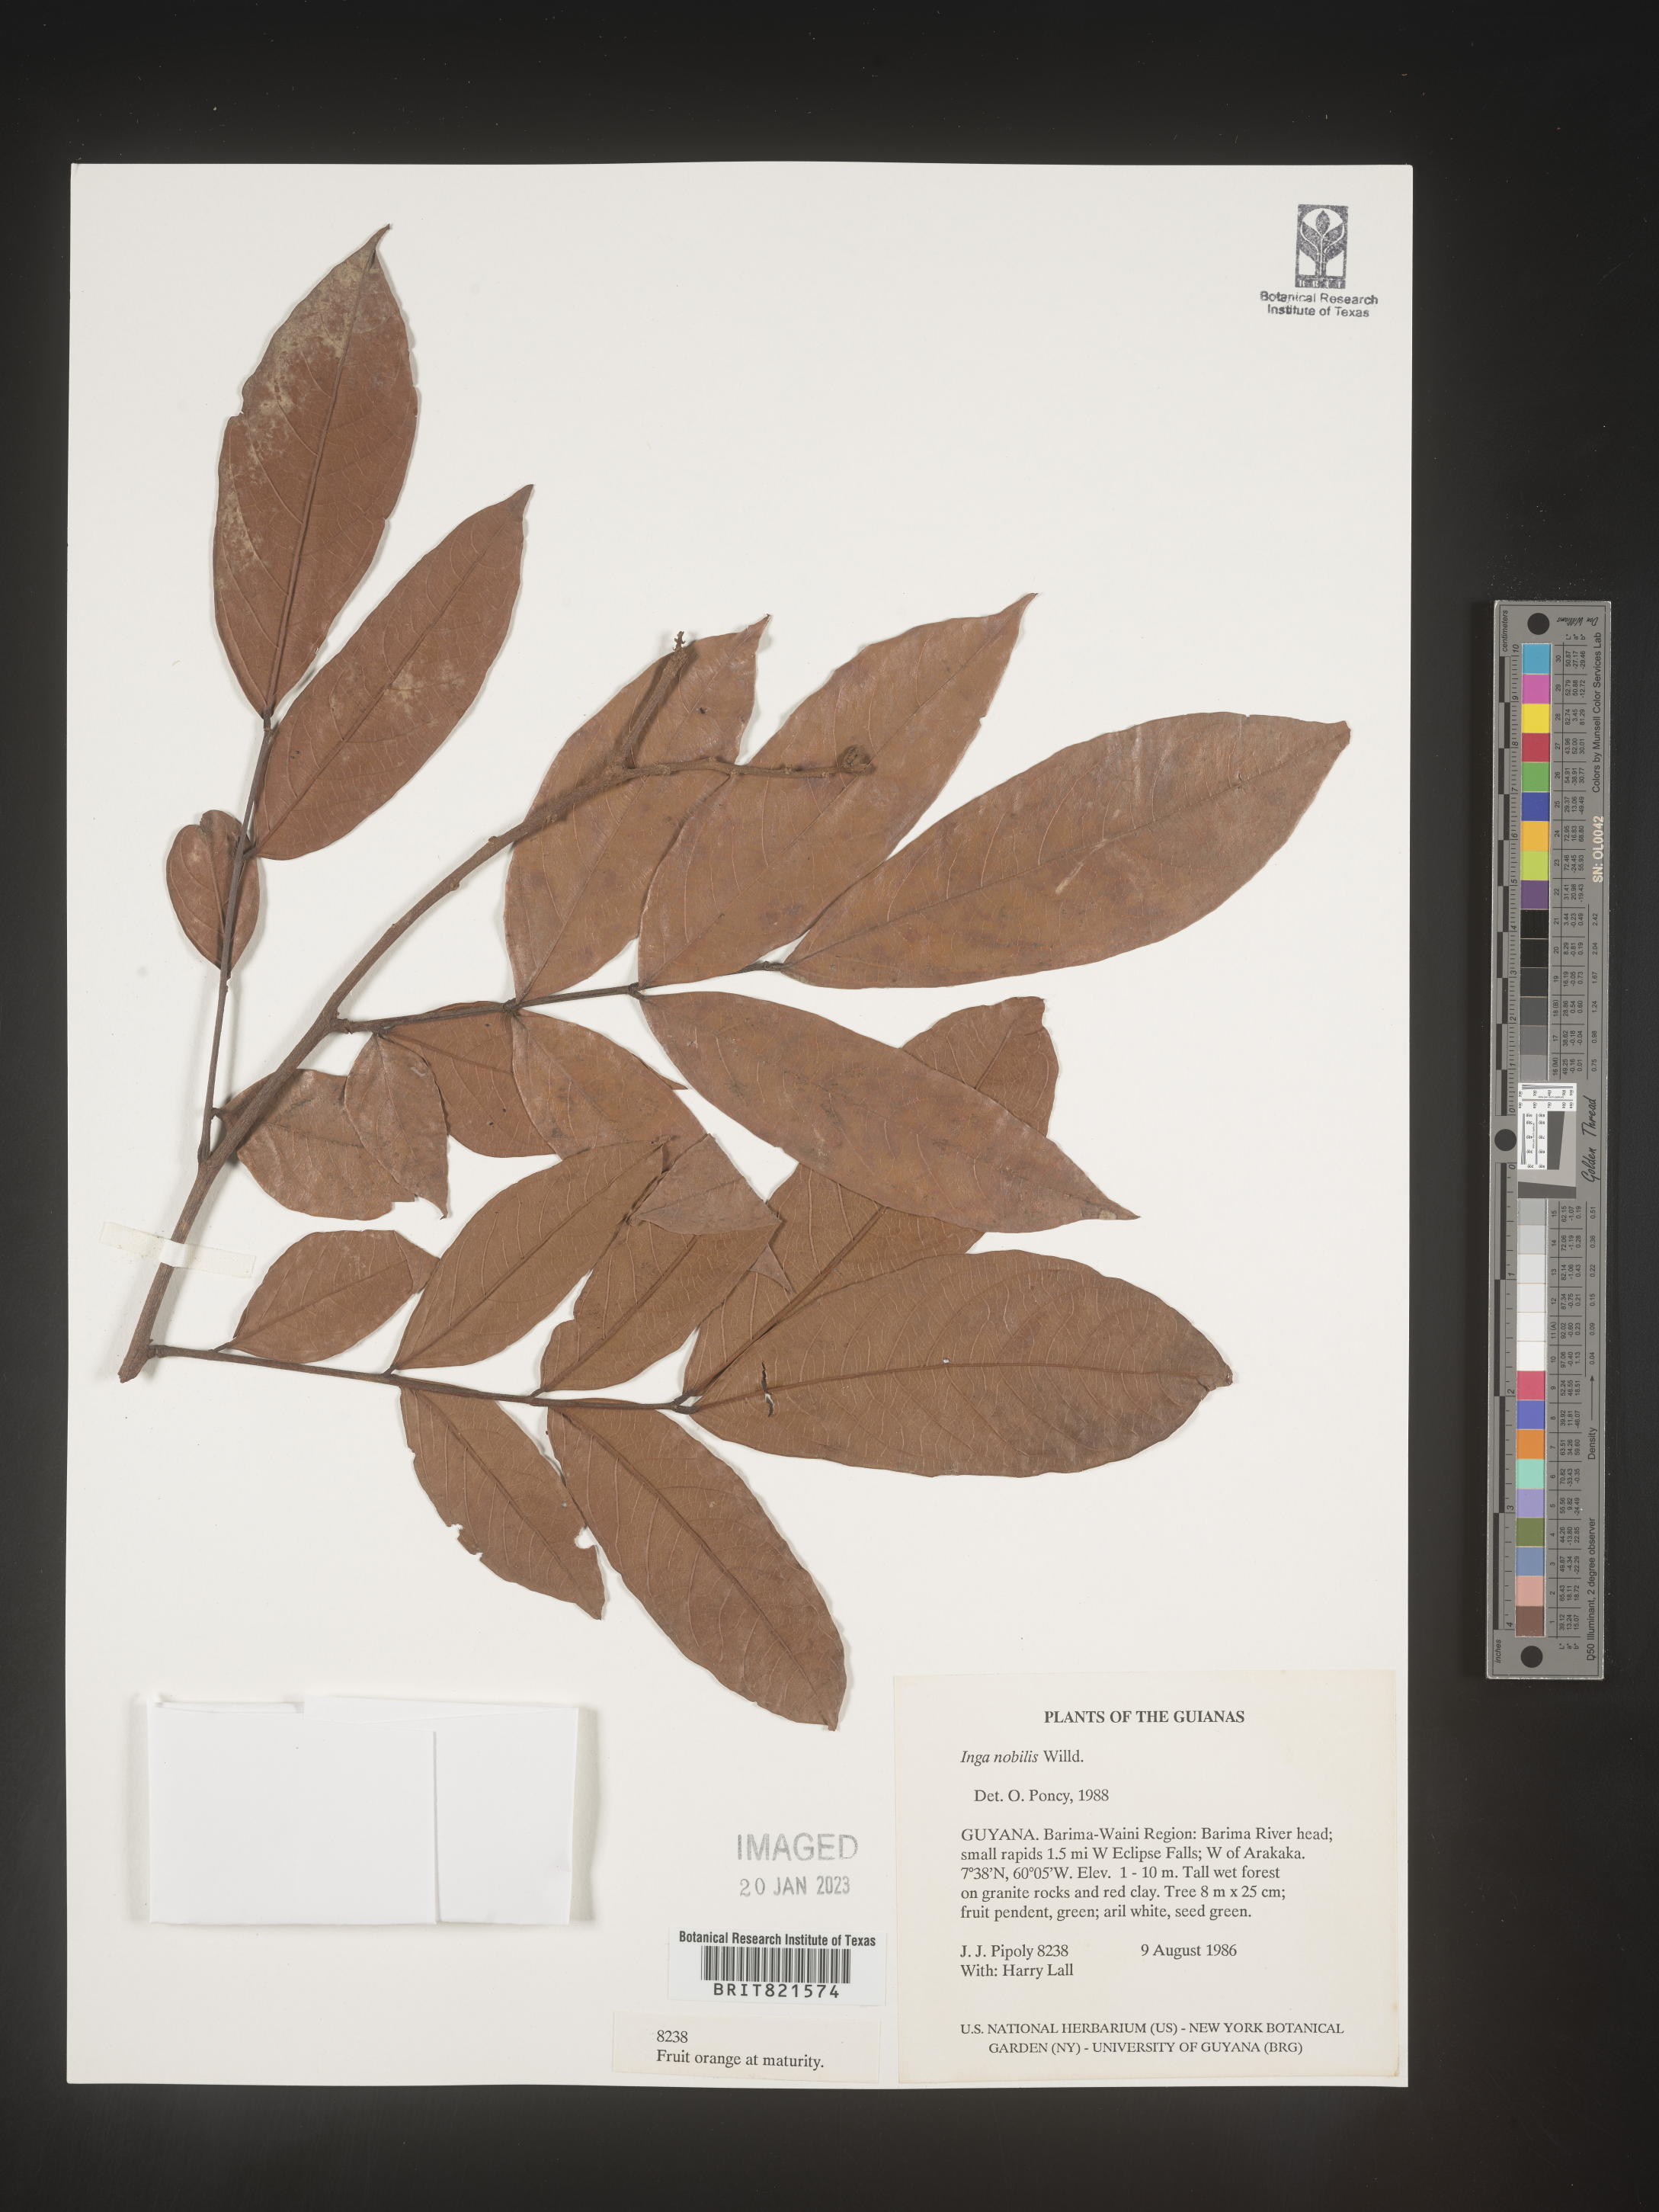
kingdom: Plantae
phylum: Tracheophyta
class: Magnoliopsida
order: Fabales
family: Fabaceae
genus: Inga
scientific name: Inga
